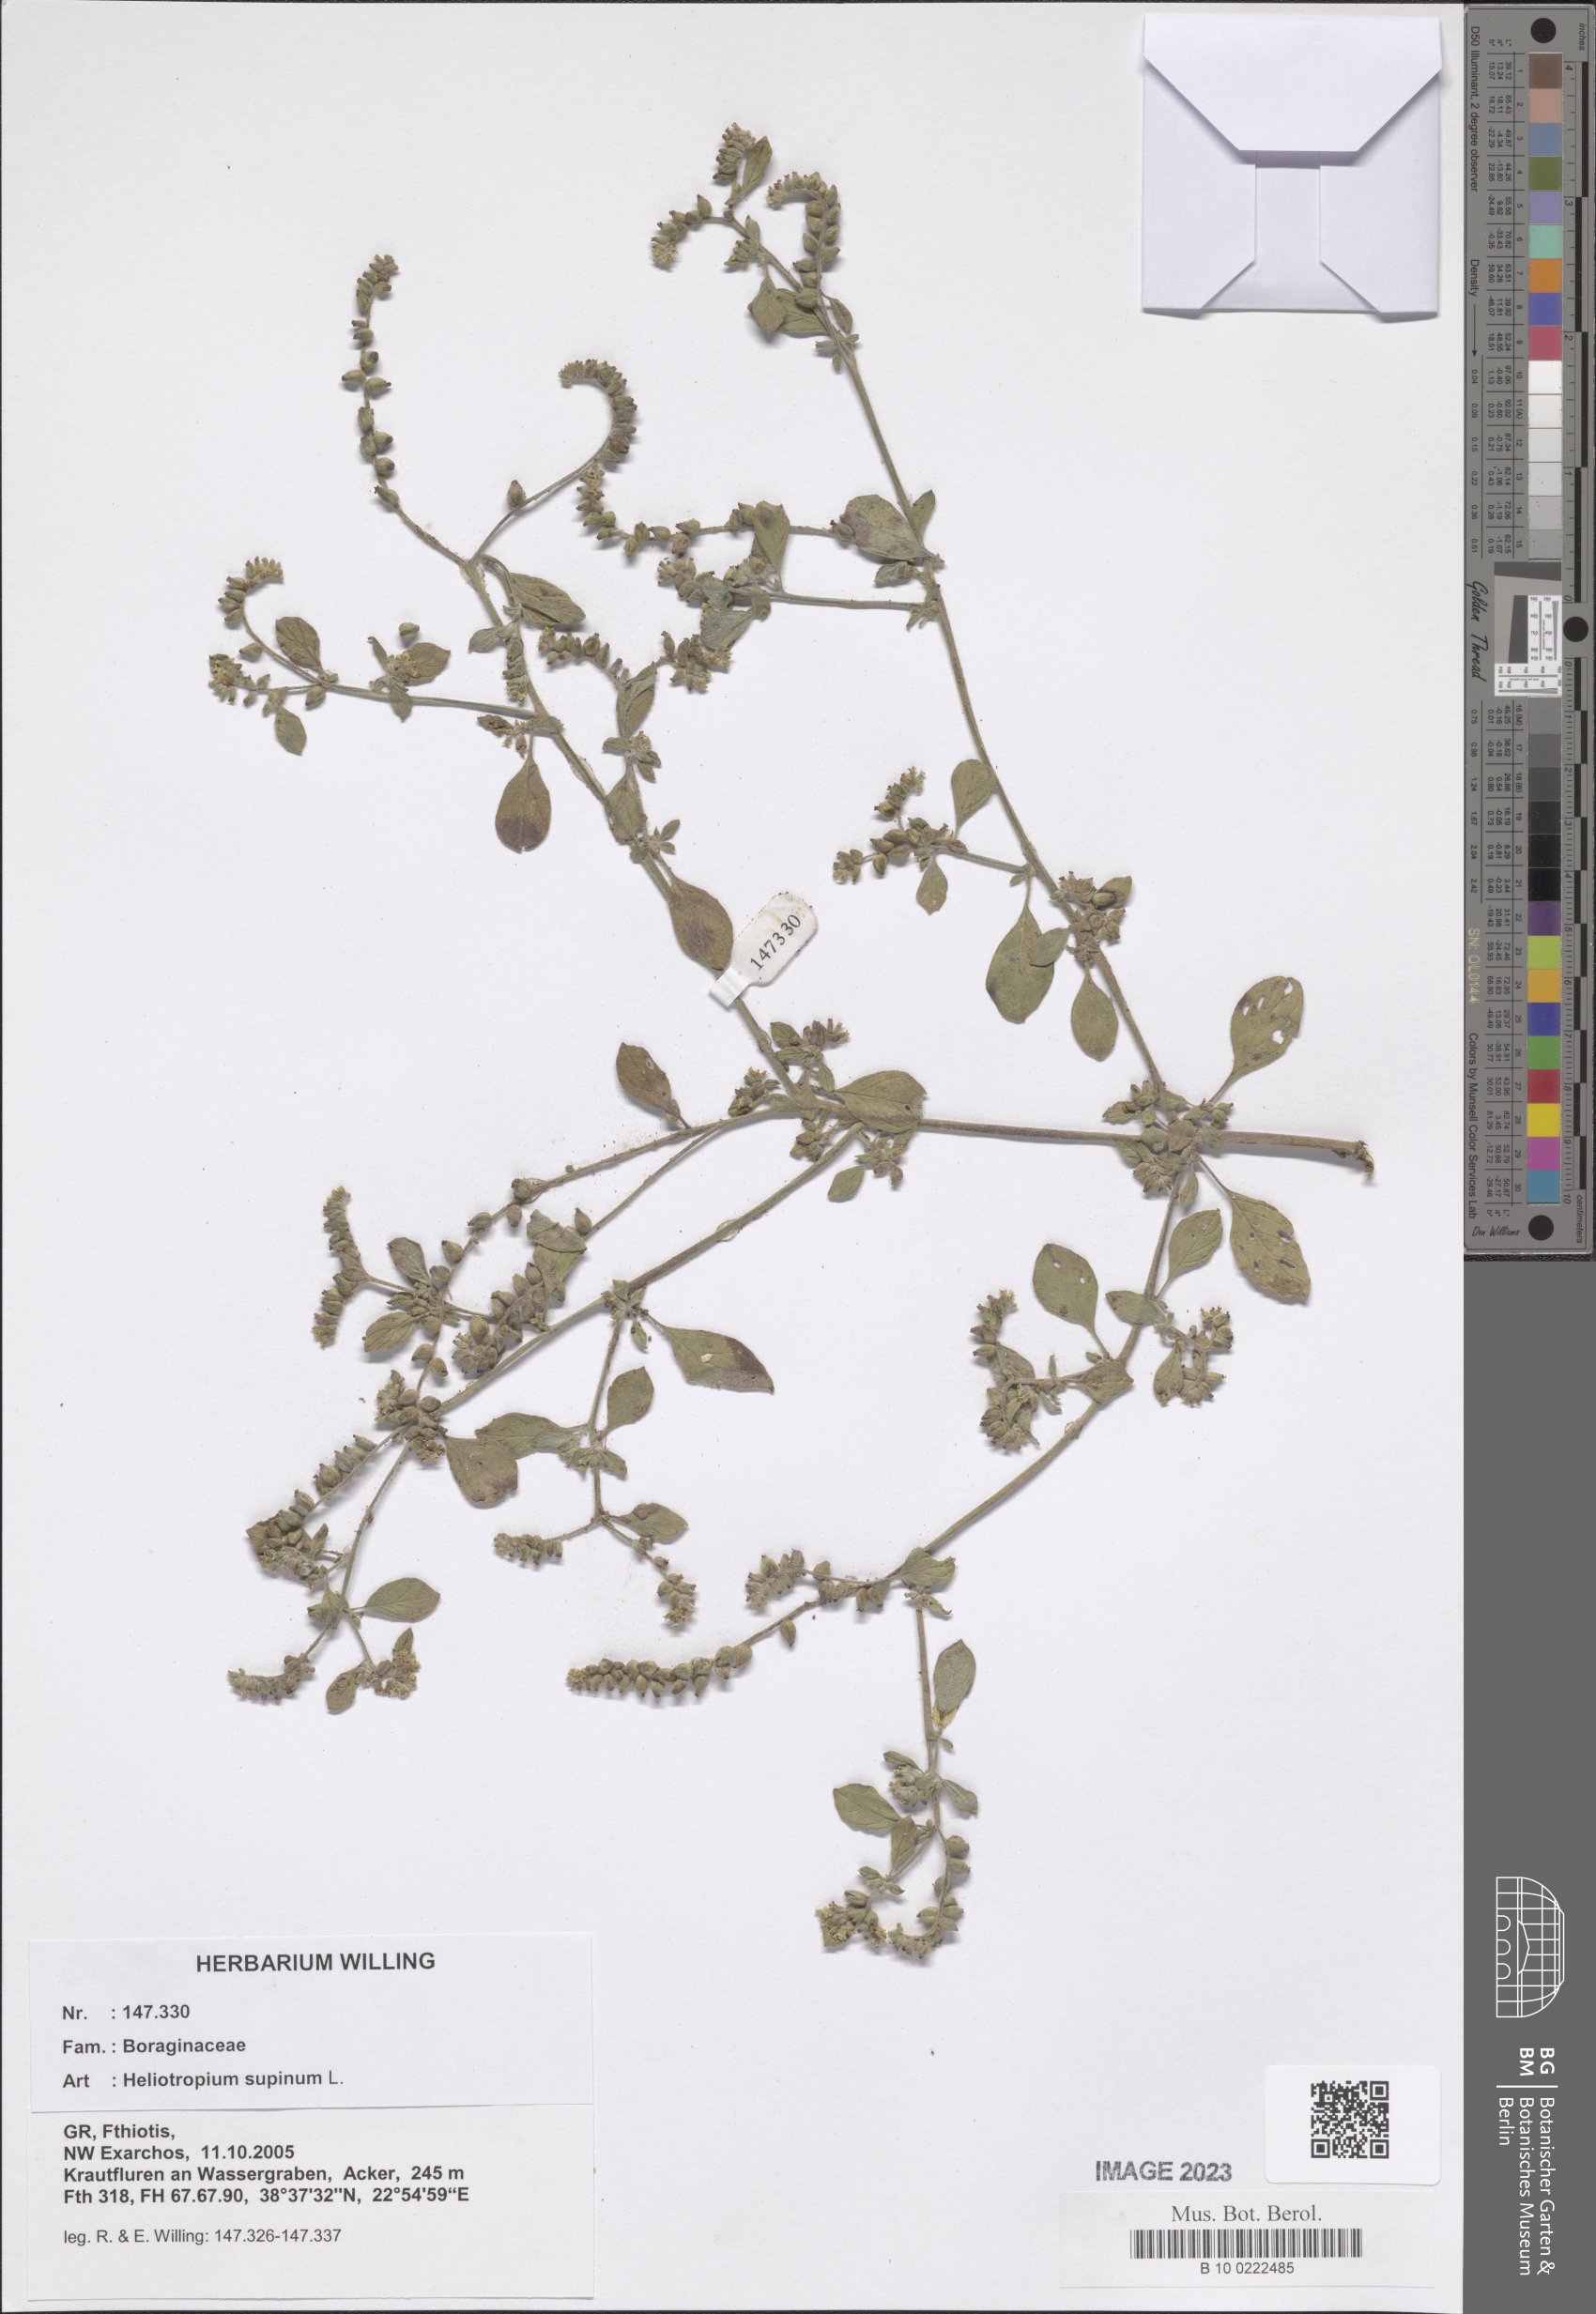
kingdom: Plantae
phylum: Tracheophyta
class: Magnoliopsida
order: Boraginales
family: Heliotropiaceae
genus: Heliotropium
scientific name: Heliotropium supinum
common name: Dwarf heliotrope
